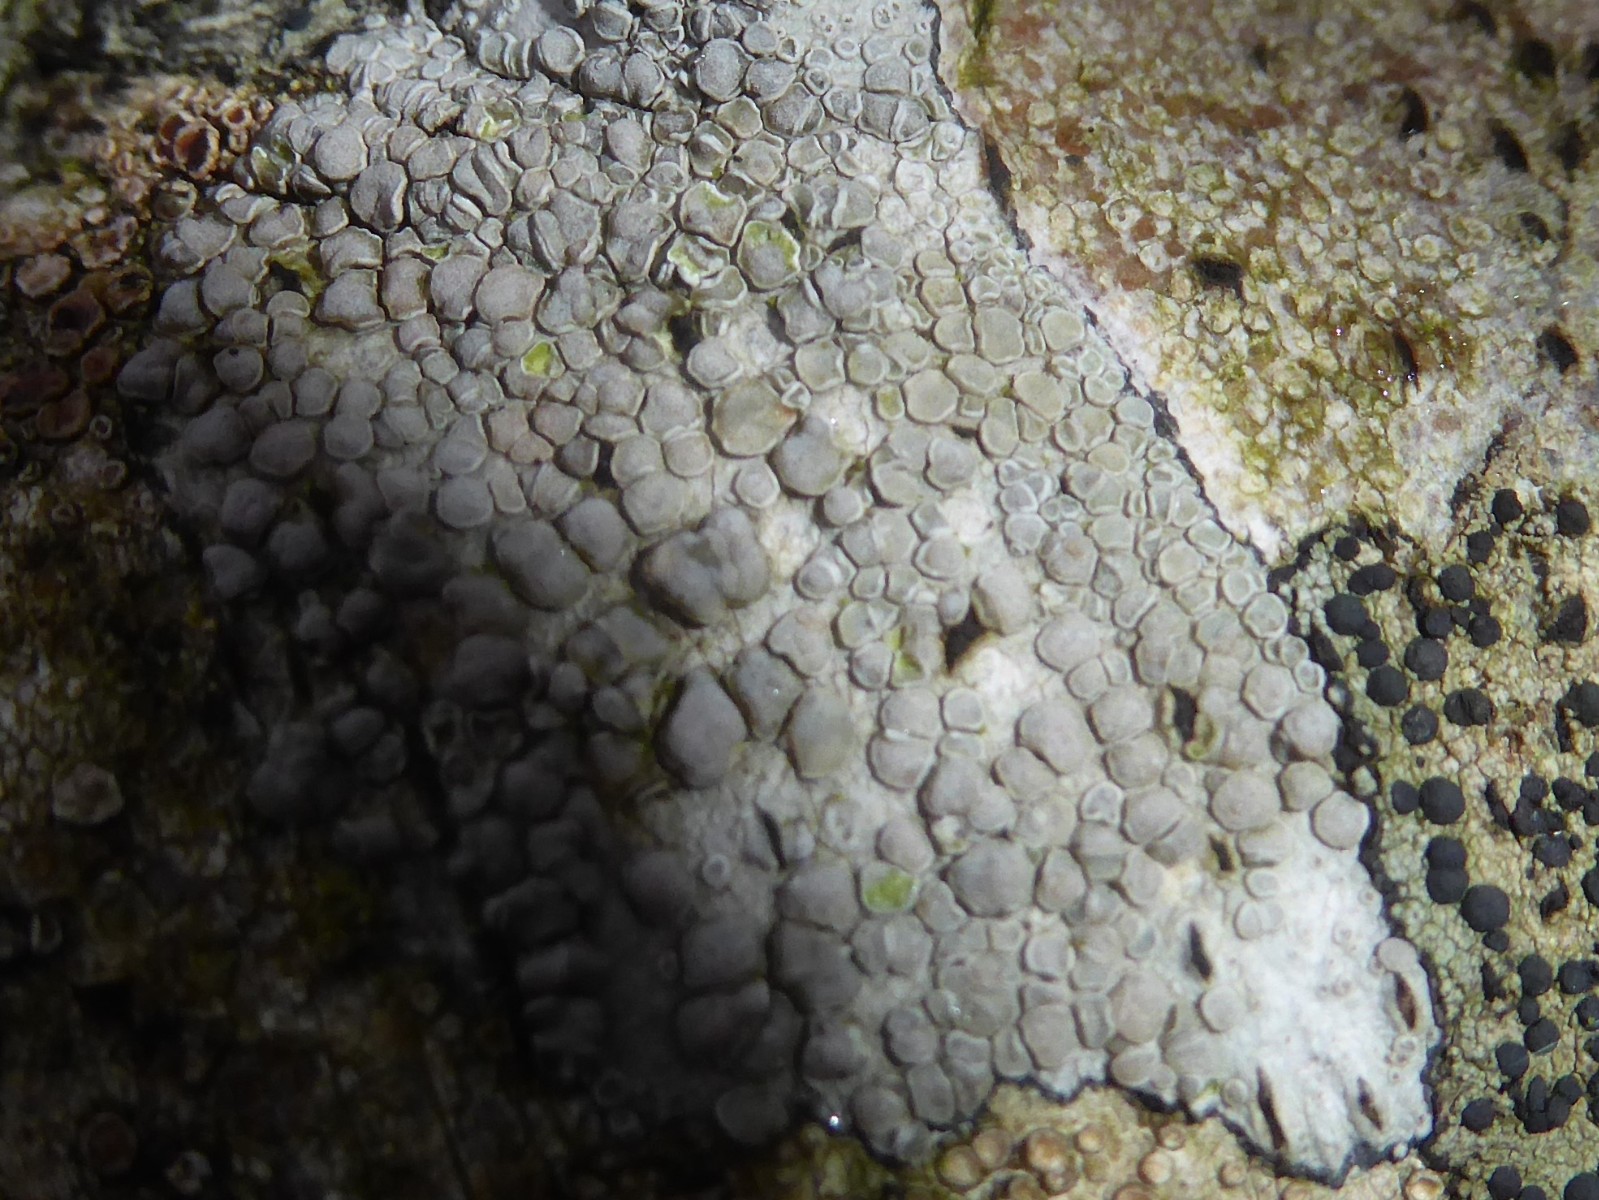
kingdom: Fungi
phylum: Ascomycota
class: Lecanoromycetes
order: Lecanorales
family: Lecanoraceae
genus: Glaucomaria
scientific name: Glaucomaria carpinea
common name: hviddugget kantskivelav
